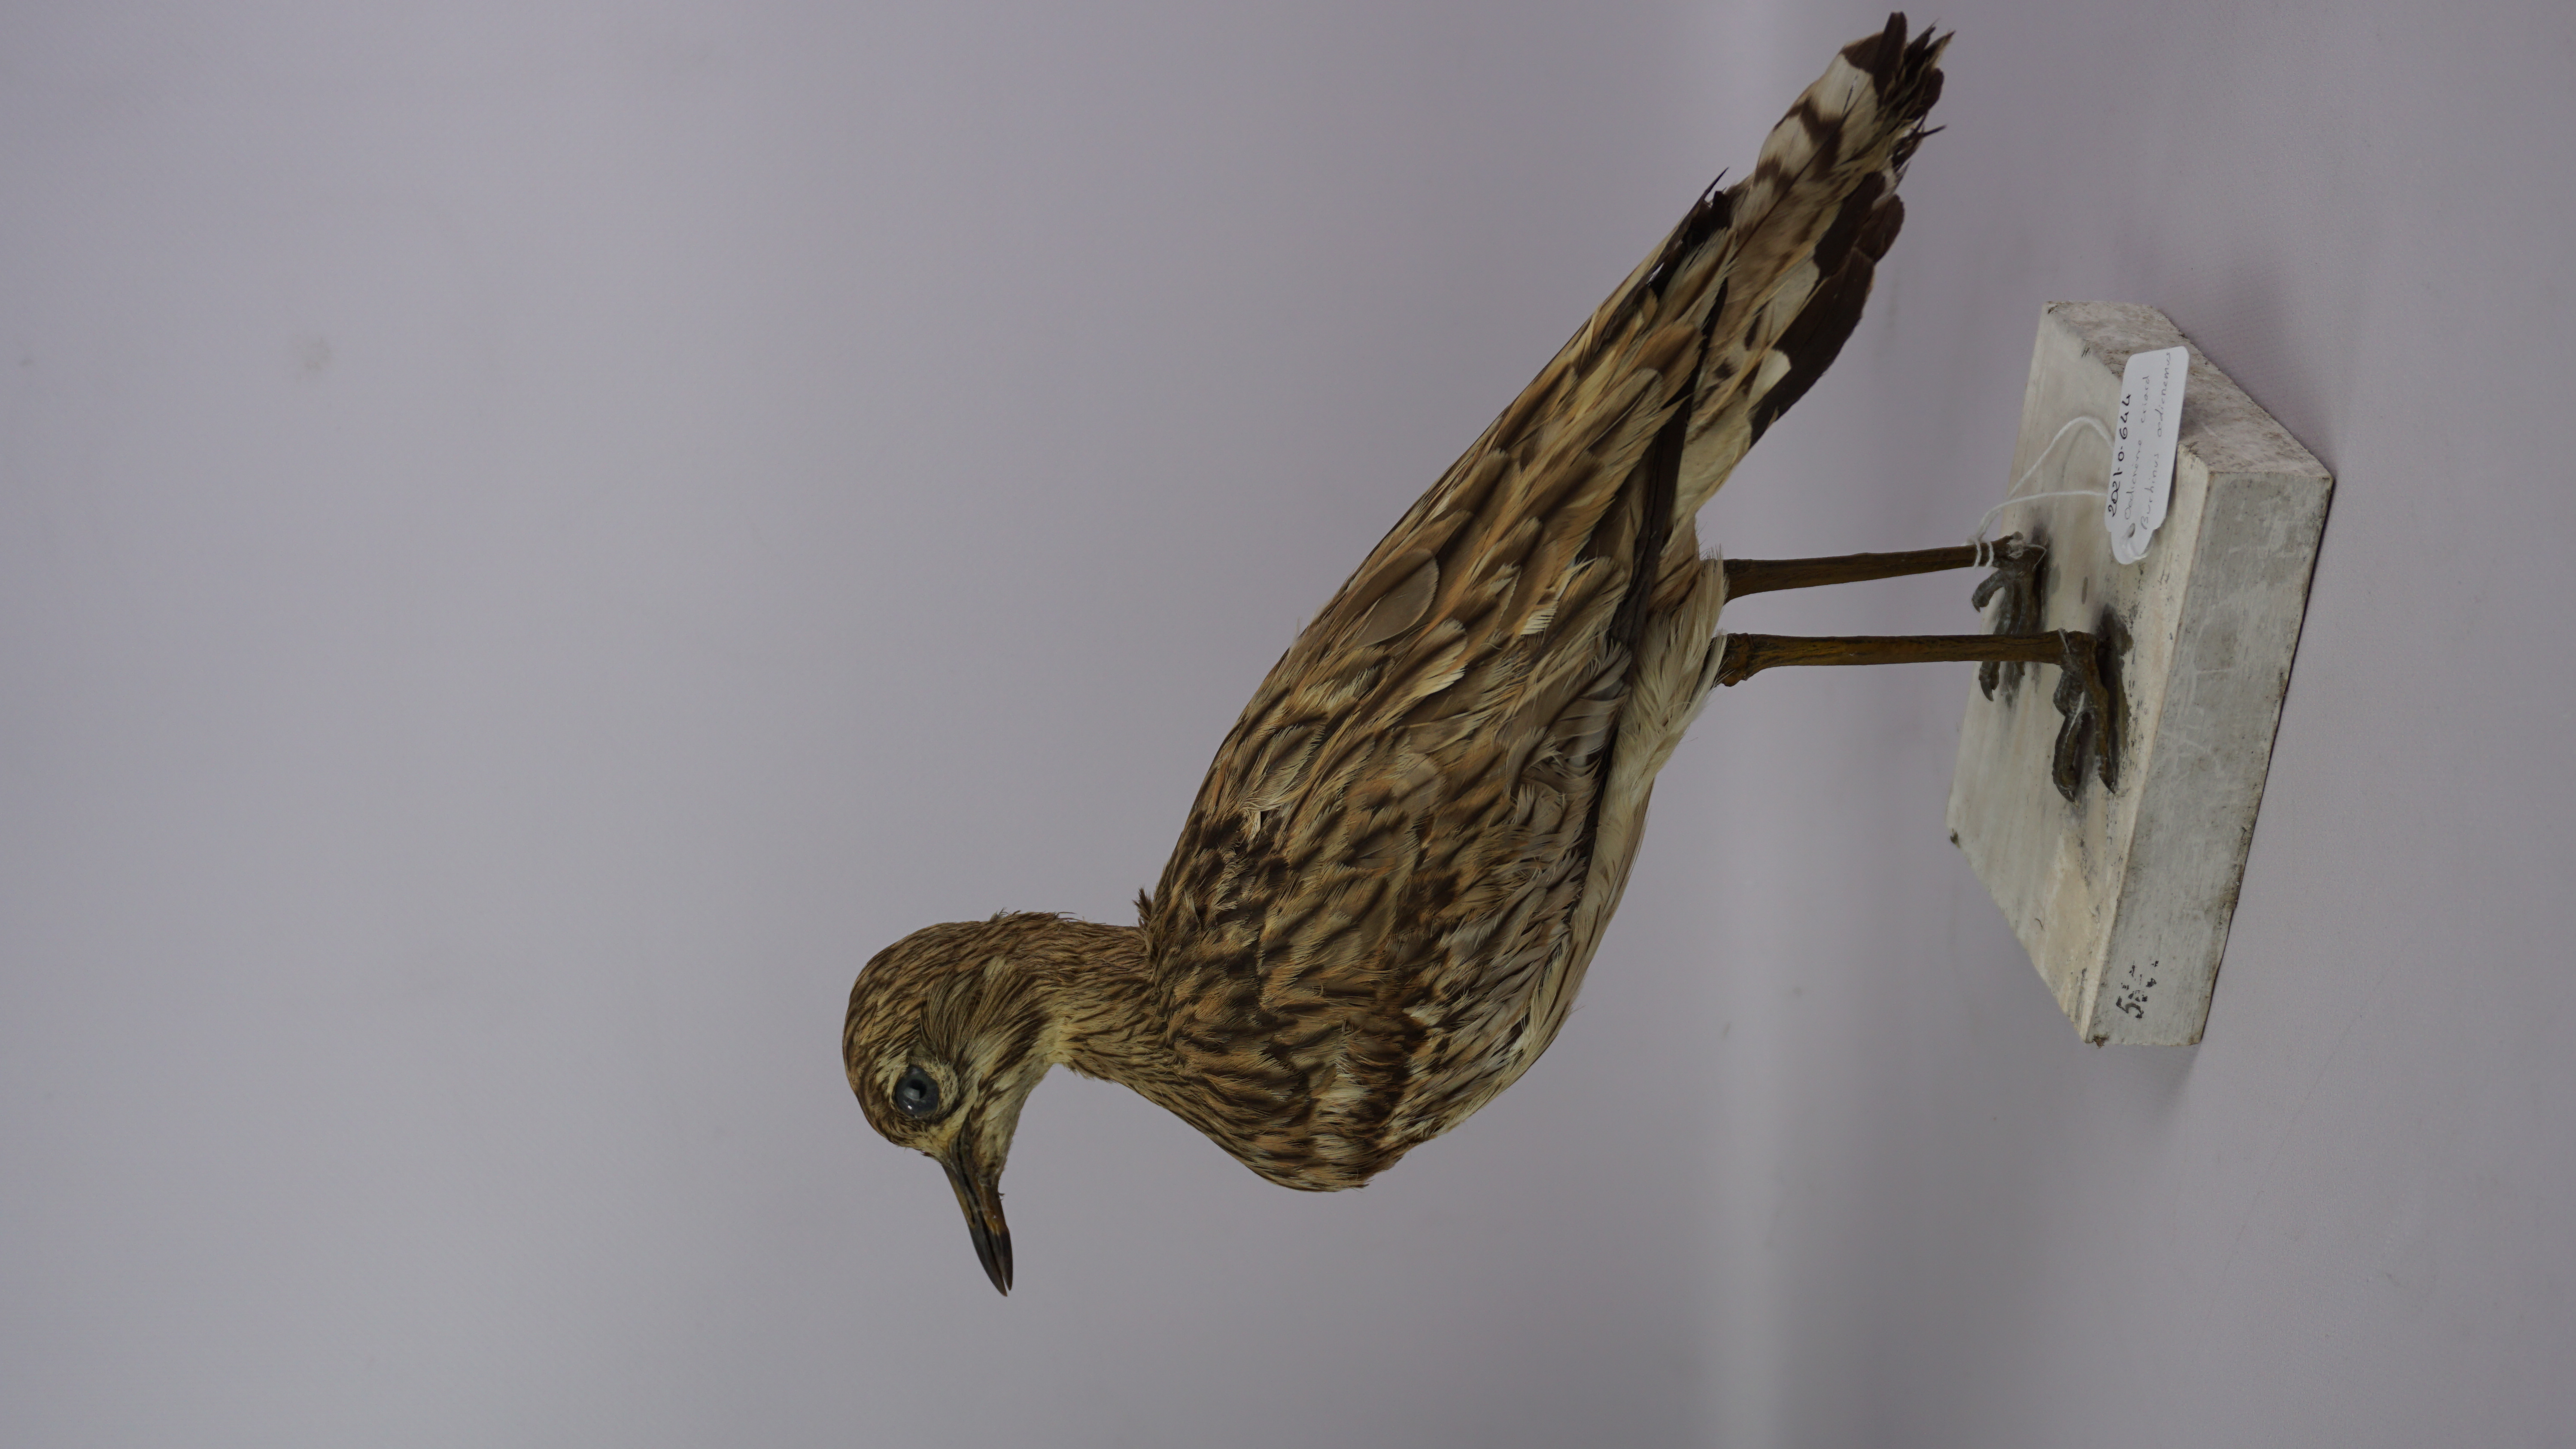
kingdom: Animalia
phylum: Chordata
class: Aves
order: Charadriiformes
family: Burhinidae
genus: Burhinus
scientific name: Burhinus oedicnemus
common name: Eurasian stone-curlew
